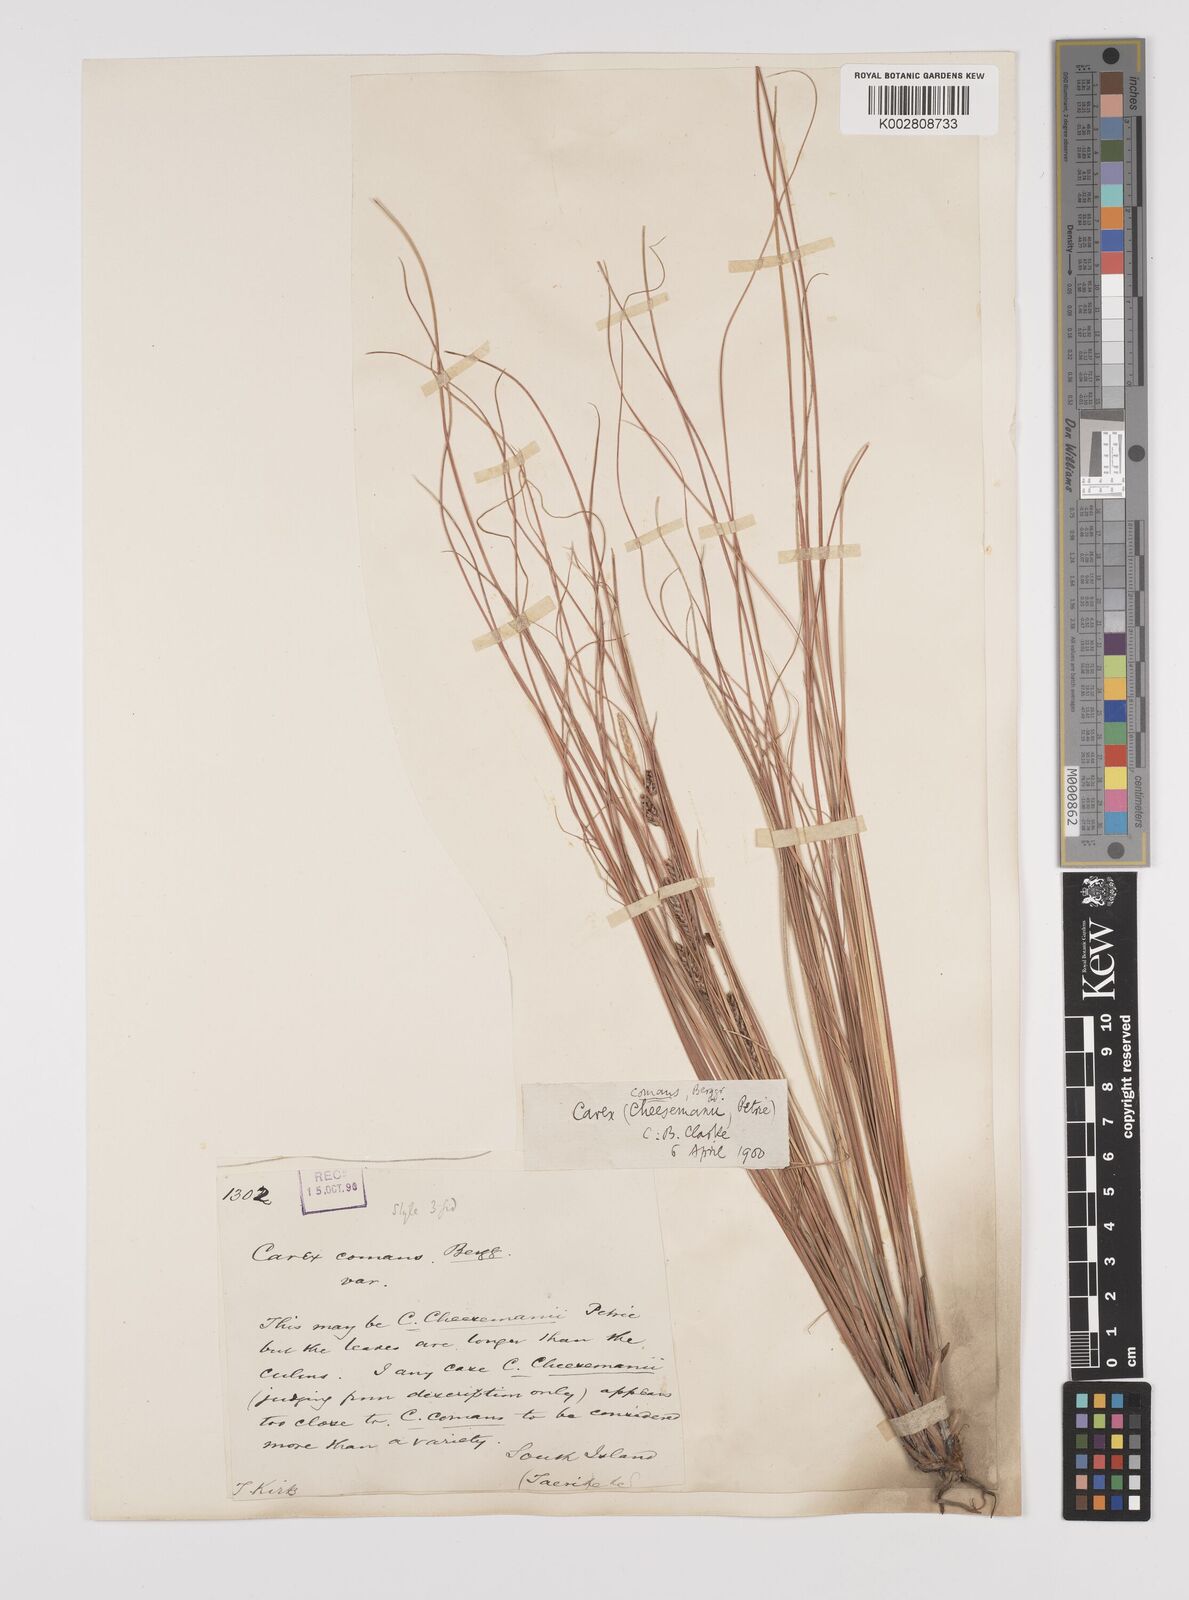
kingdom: Plantae
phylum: Tracheophyta
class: Liliopsida
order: Poales
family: Cyperaceae
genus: Carex
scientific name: Carex comans
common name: Longwood tussock
